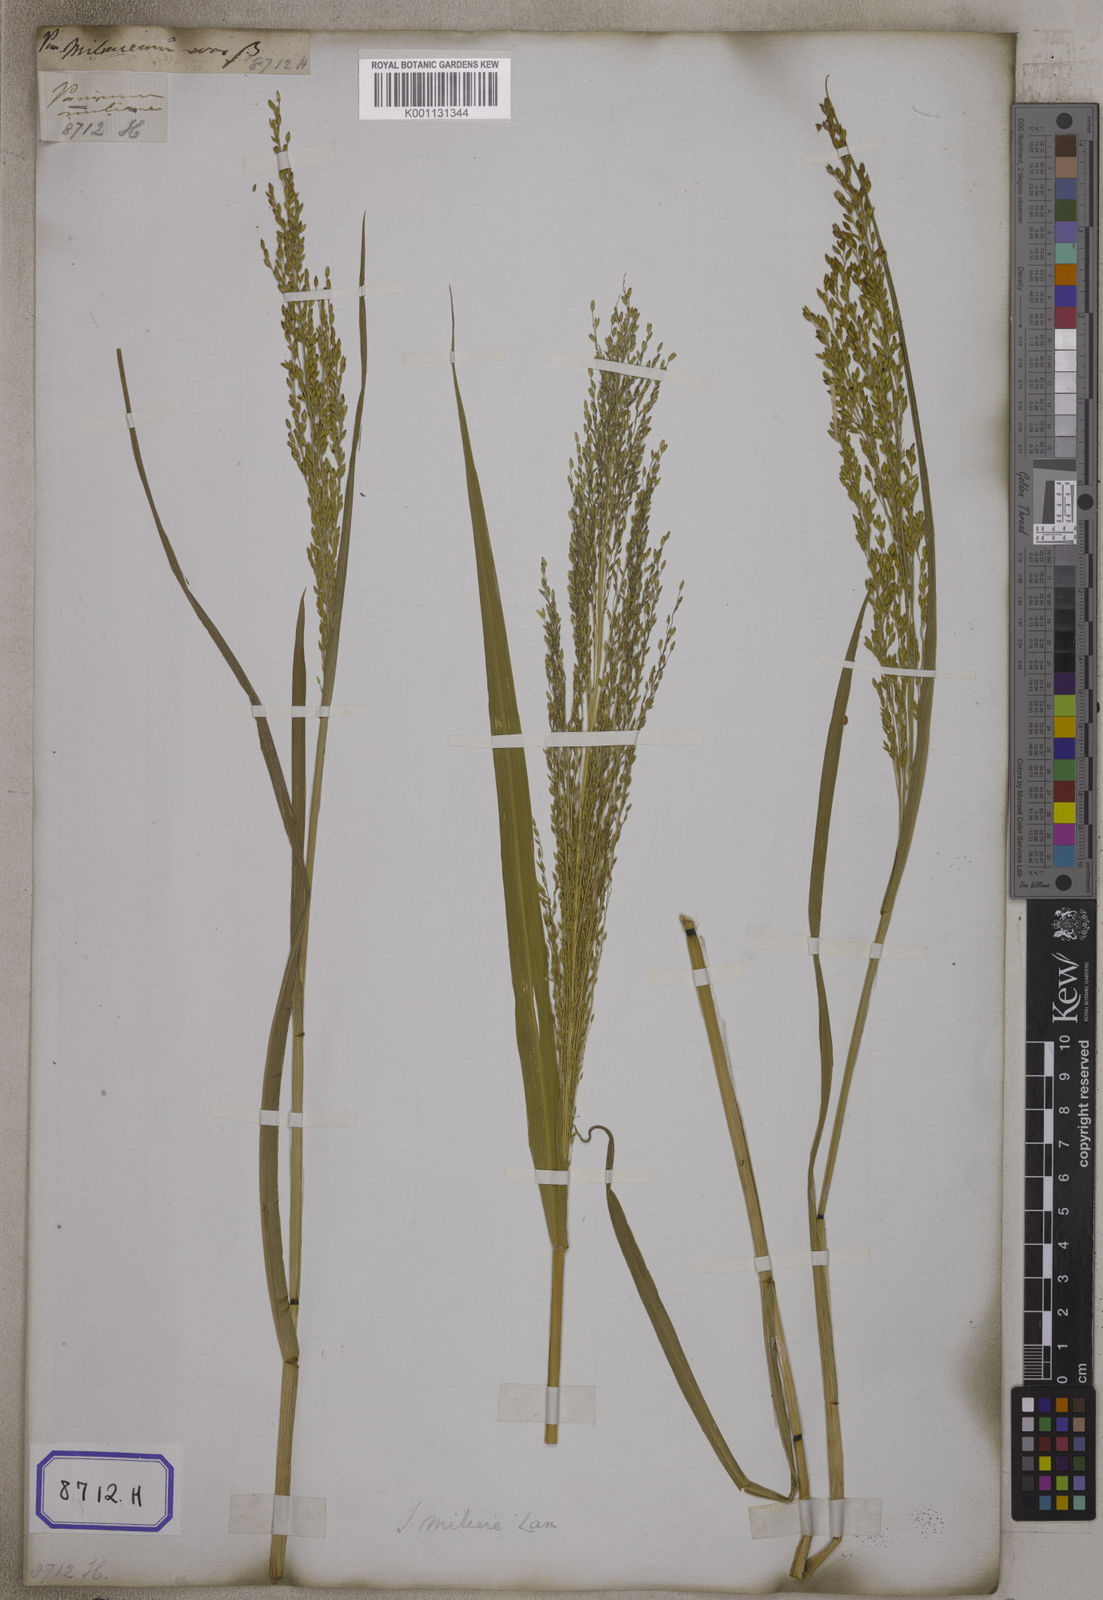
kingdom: Plantae
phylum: Tracheophyta
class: Liliopsida
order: Poales
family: Poaceae
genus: Panicum
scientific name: Panicum antidotale
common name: Blue panicum
